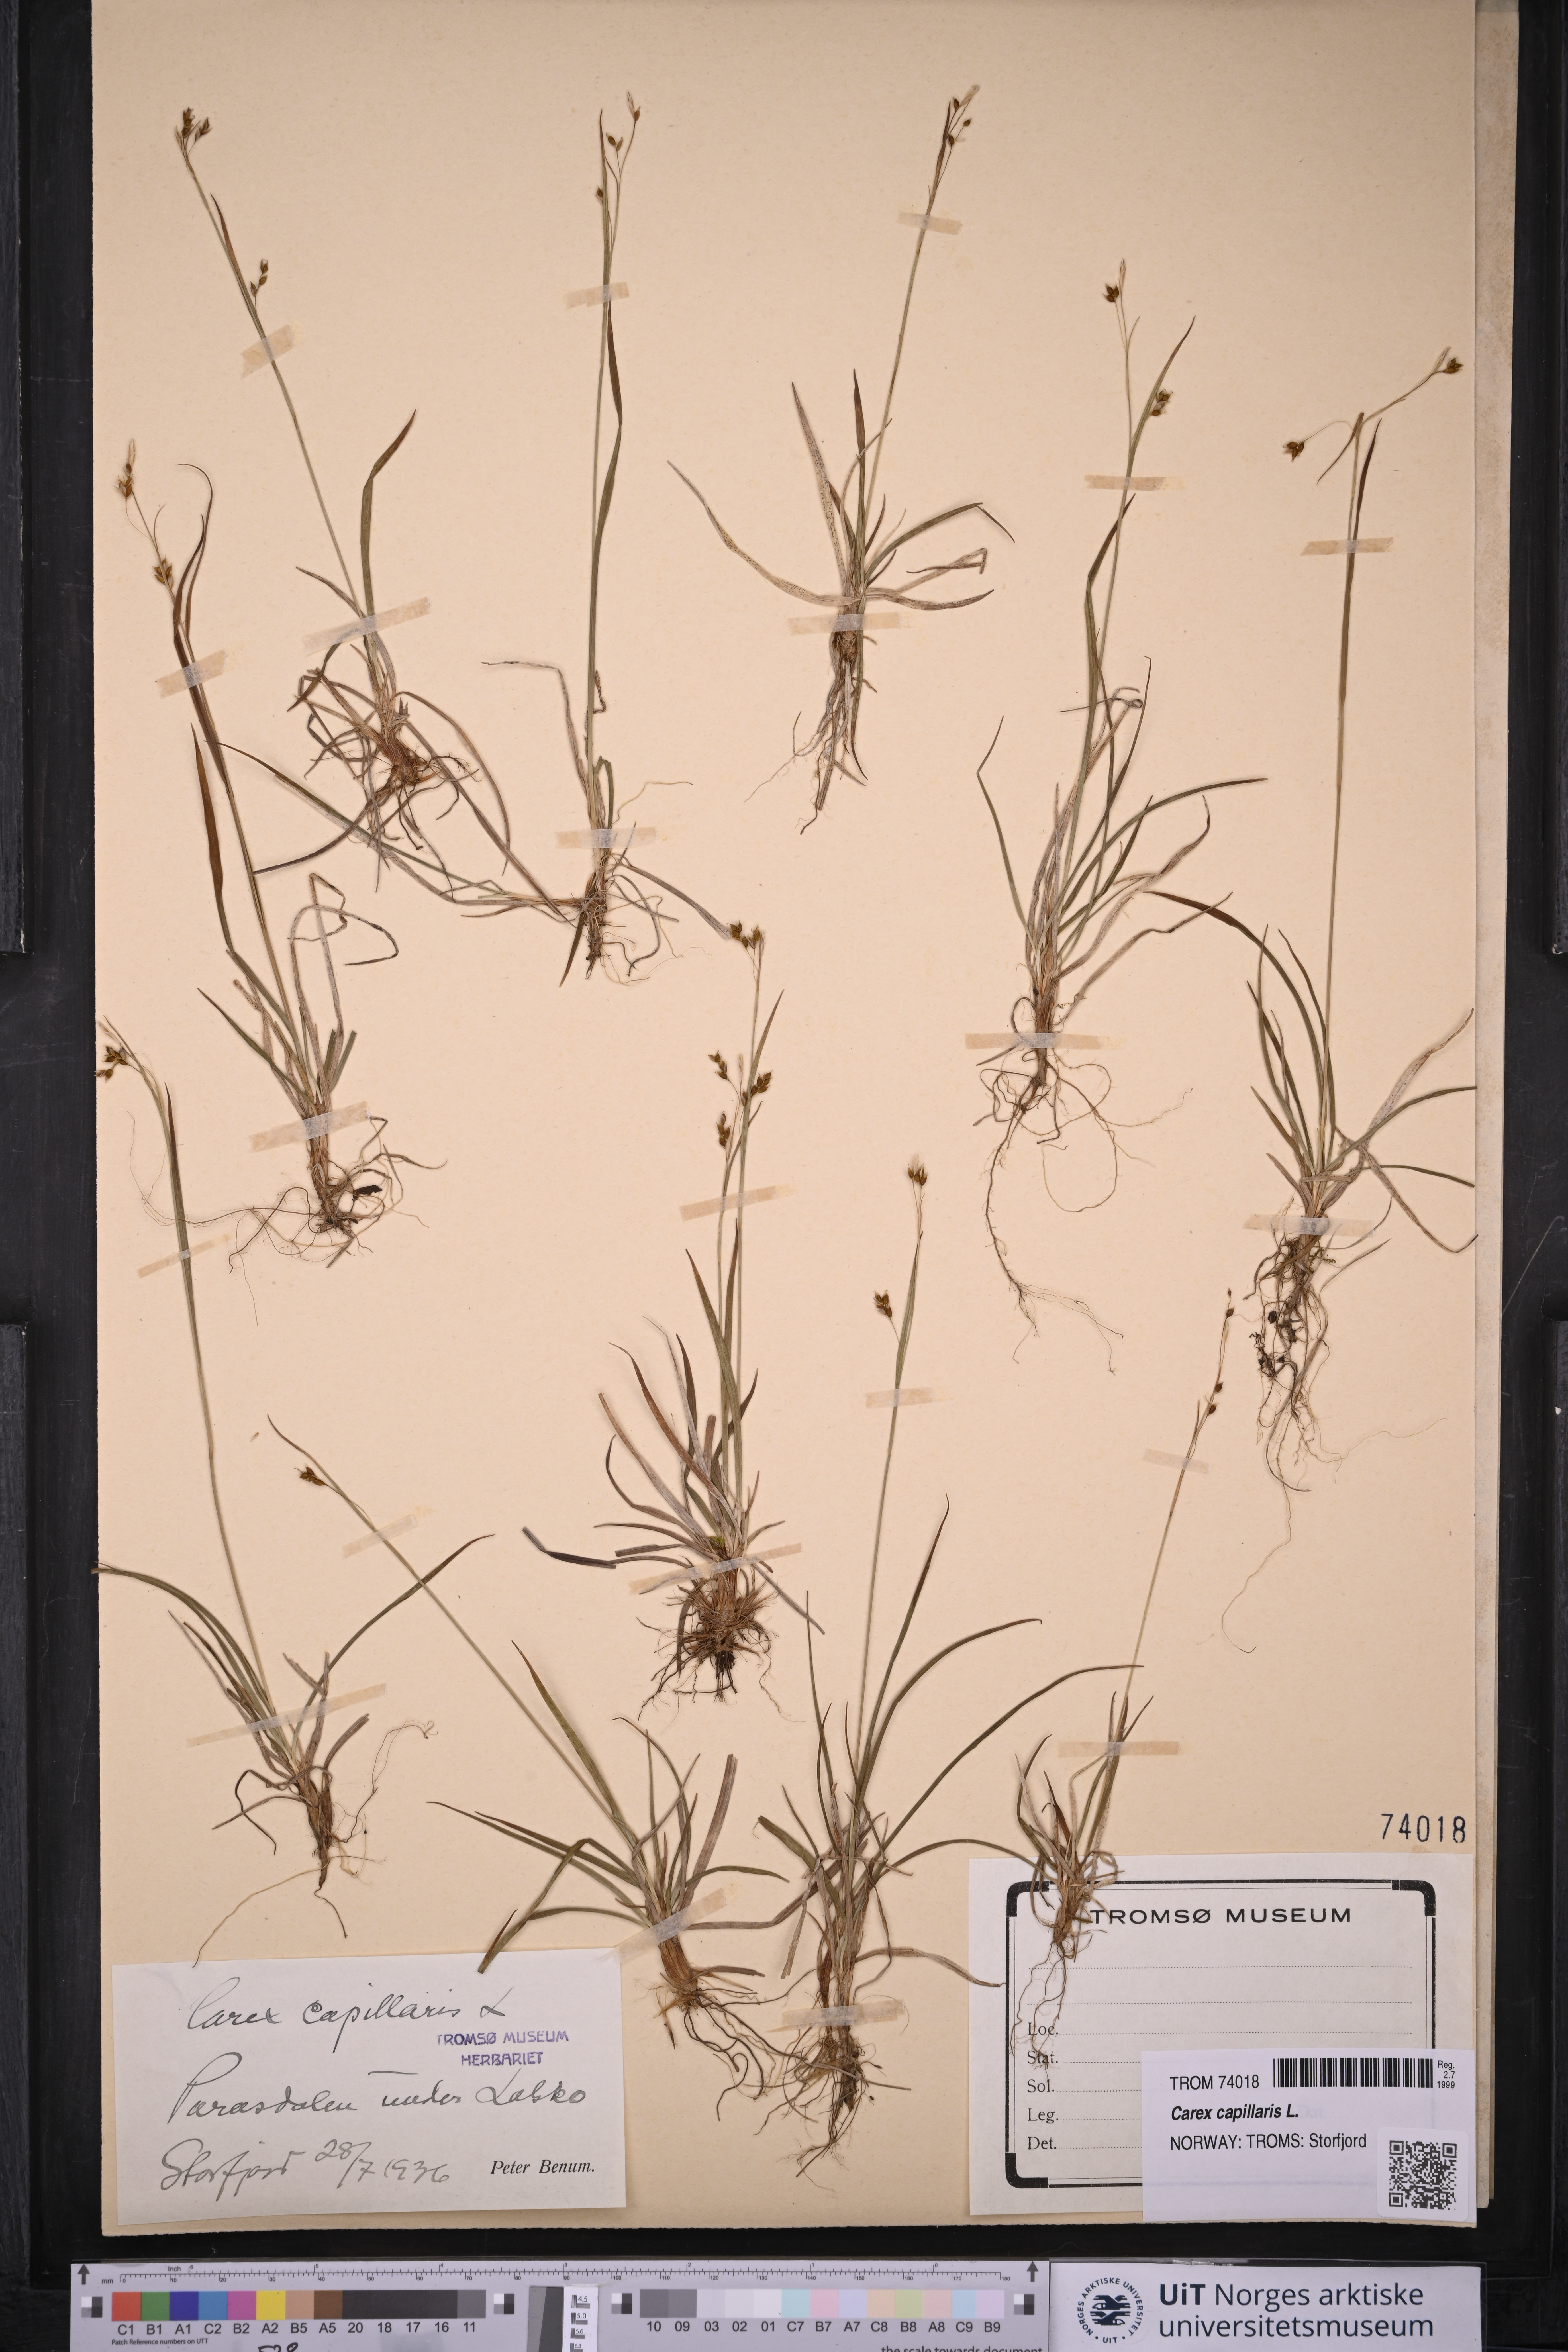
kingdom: Plantae
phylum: Tracheophyta
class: Liliopsida
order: Poales
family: Cyperaceae
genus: Carex
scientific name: Carex capillaris
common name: Hair sedge
